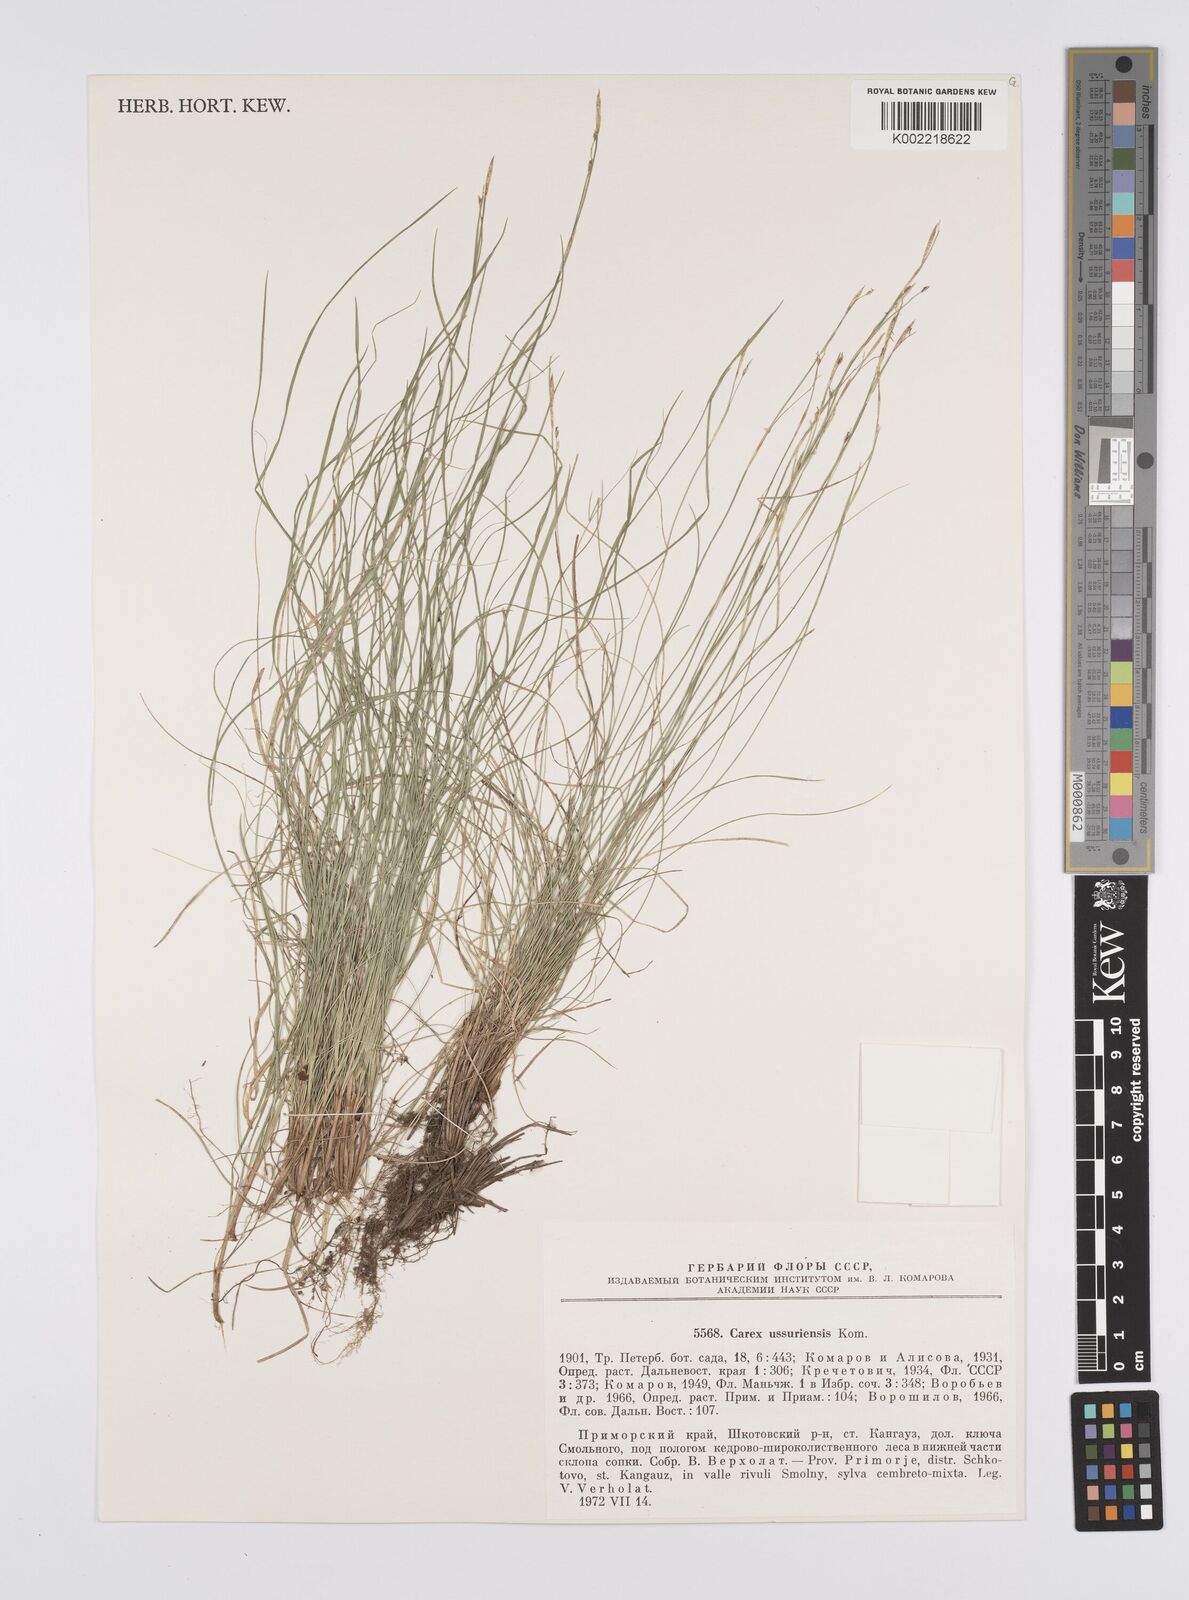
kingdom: Plantae
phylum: Tracheophyta
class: Liliopsida
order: Poales
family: Cyperaceae
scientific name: Cyperaceae
